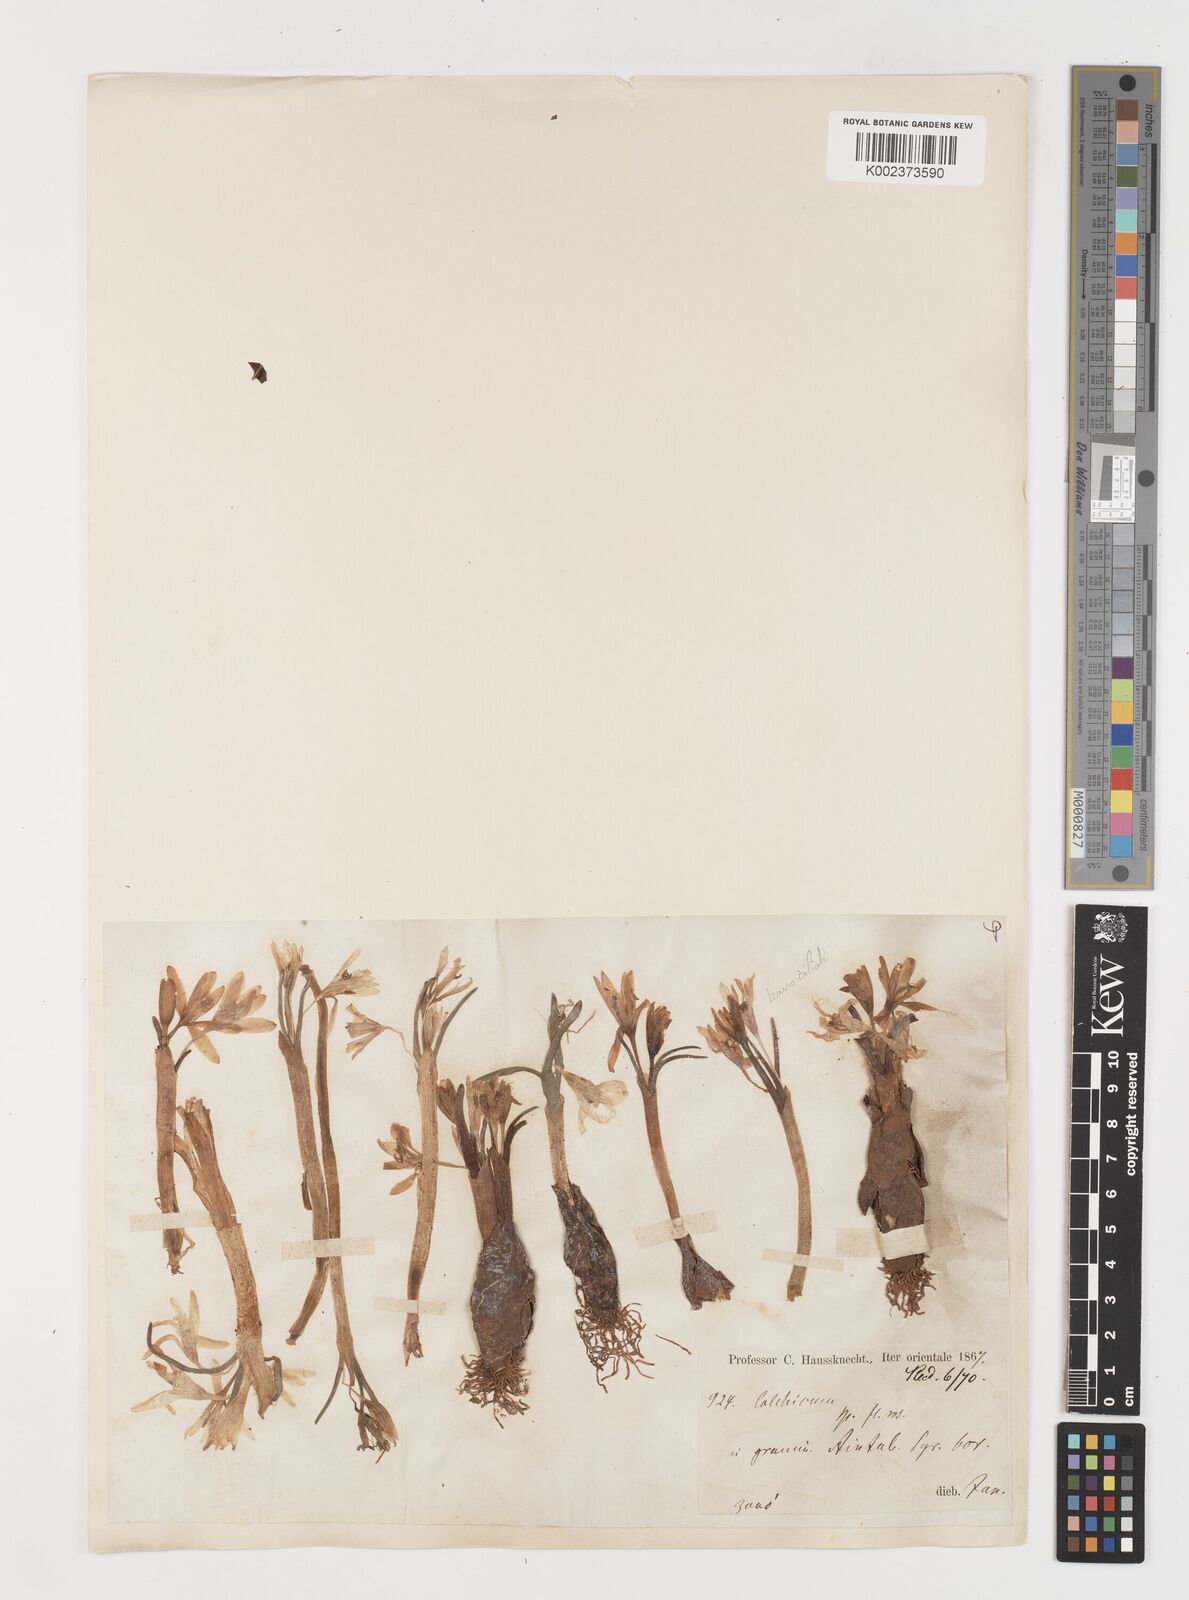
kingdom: Plantae
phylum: Tracheophyta
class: Liliopsida
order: Liliales
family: Colchicaceae
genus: Colchicum
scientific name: Colchicum serpentinum
